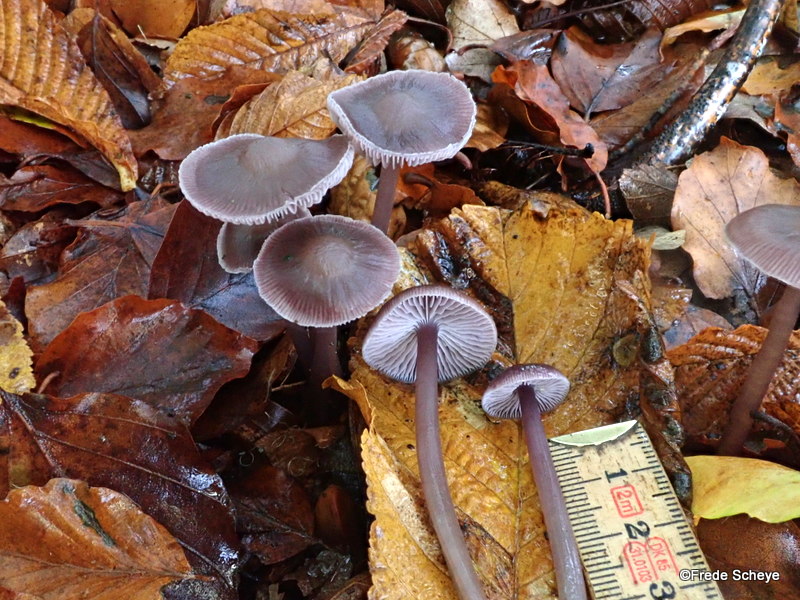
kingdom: Fungi
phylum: Basidiomycota
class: Agaricomycetes
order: Agaricales
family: Mycenaceae
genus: Prunulus
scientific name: Prunulus diosmus
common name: tobaks-huesvamp
